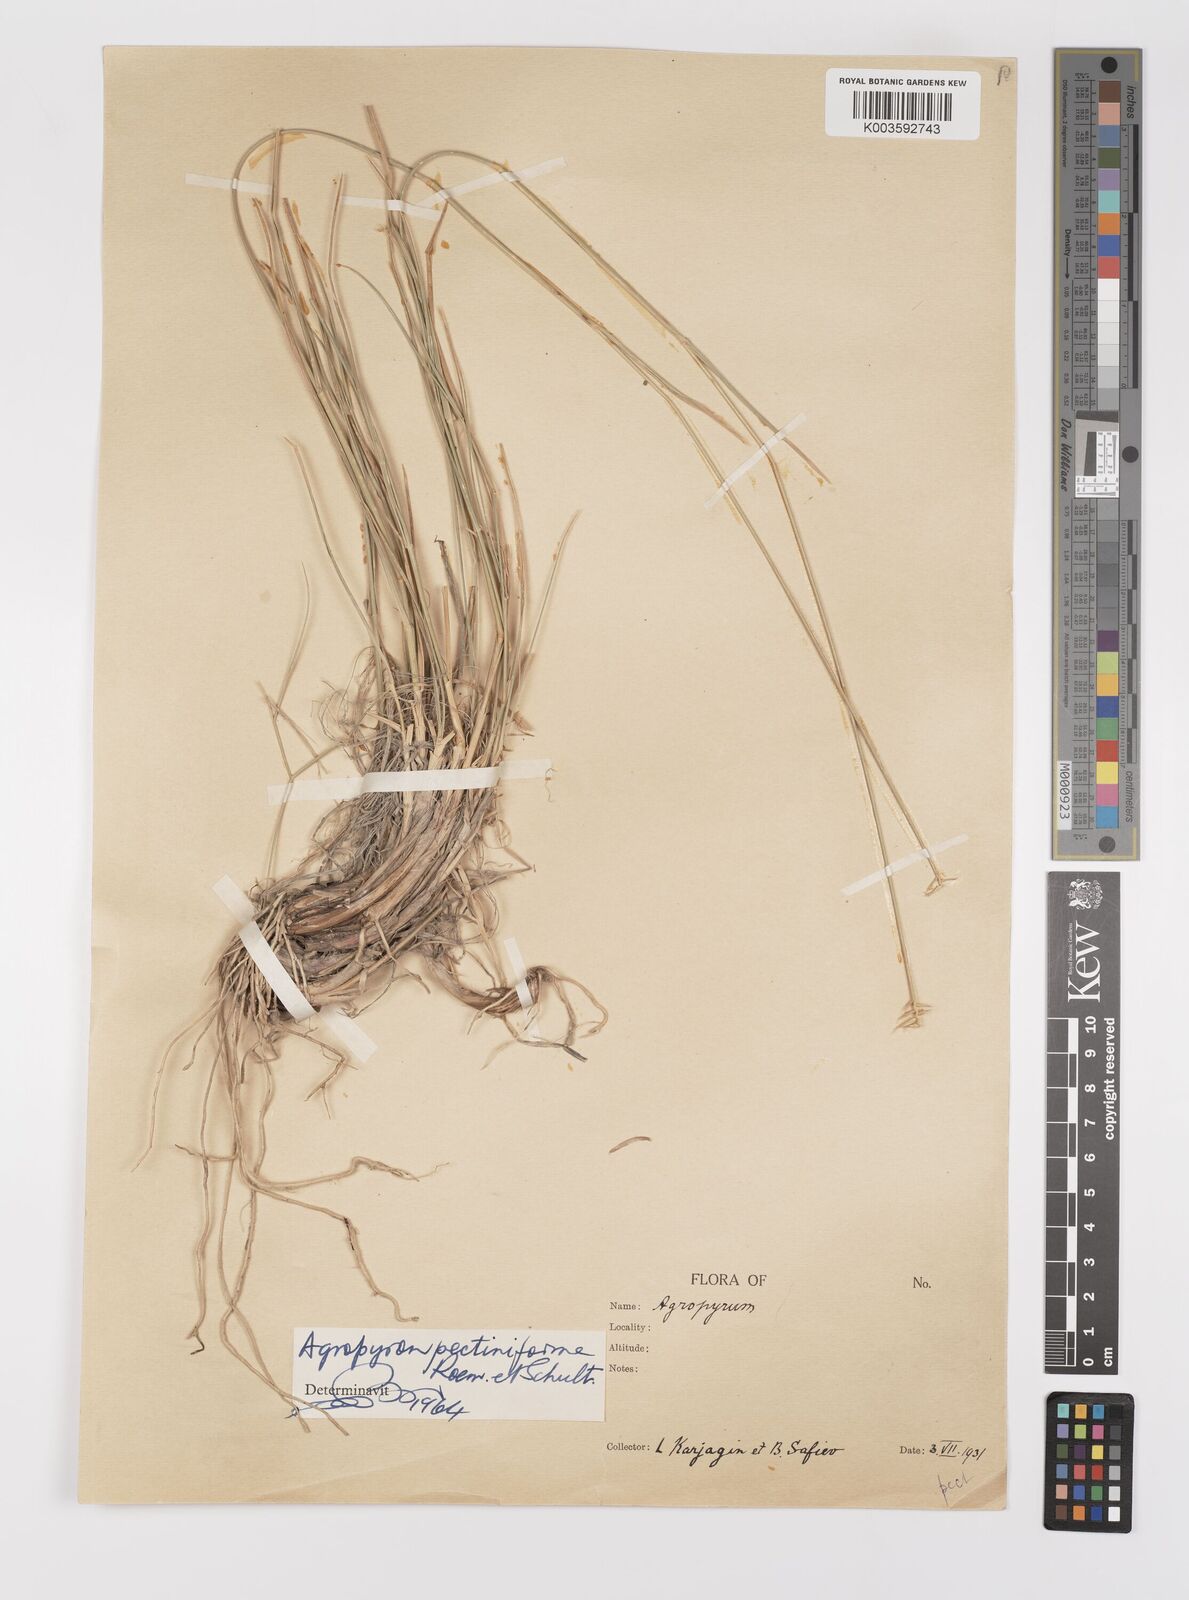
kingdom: Plantae
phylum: Tracheophyta
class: Liliopsida
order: Poales
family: Poaceae
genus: Agropyron
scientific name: Agropyron cristatum
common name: Crested wheatgrass
